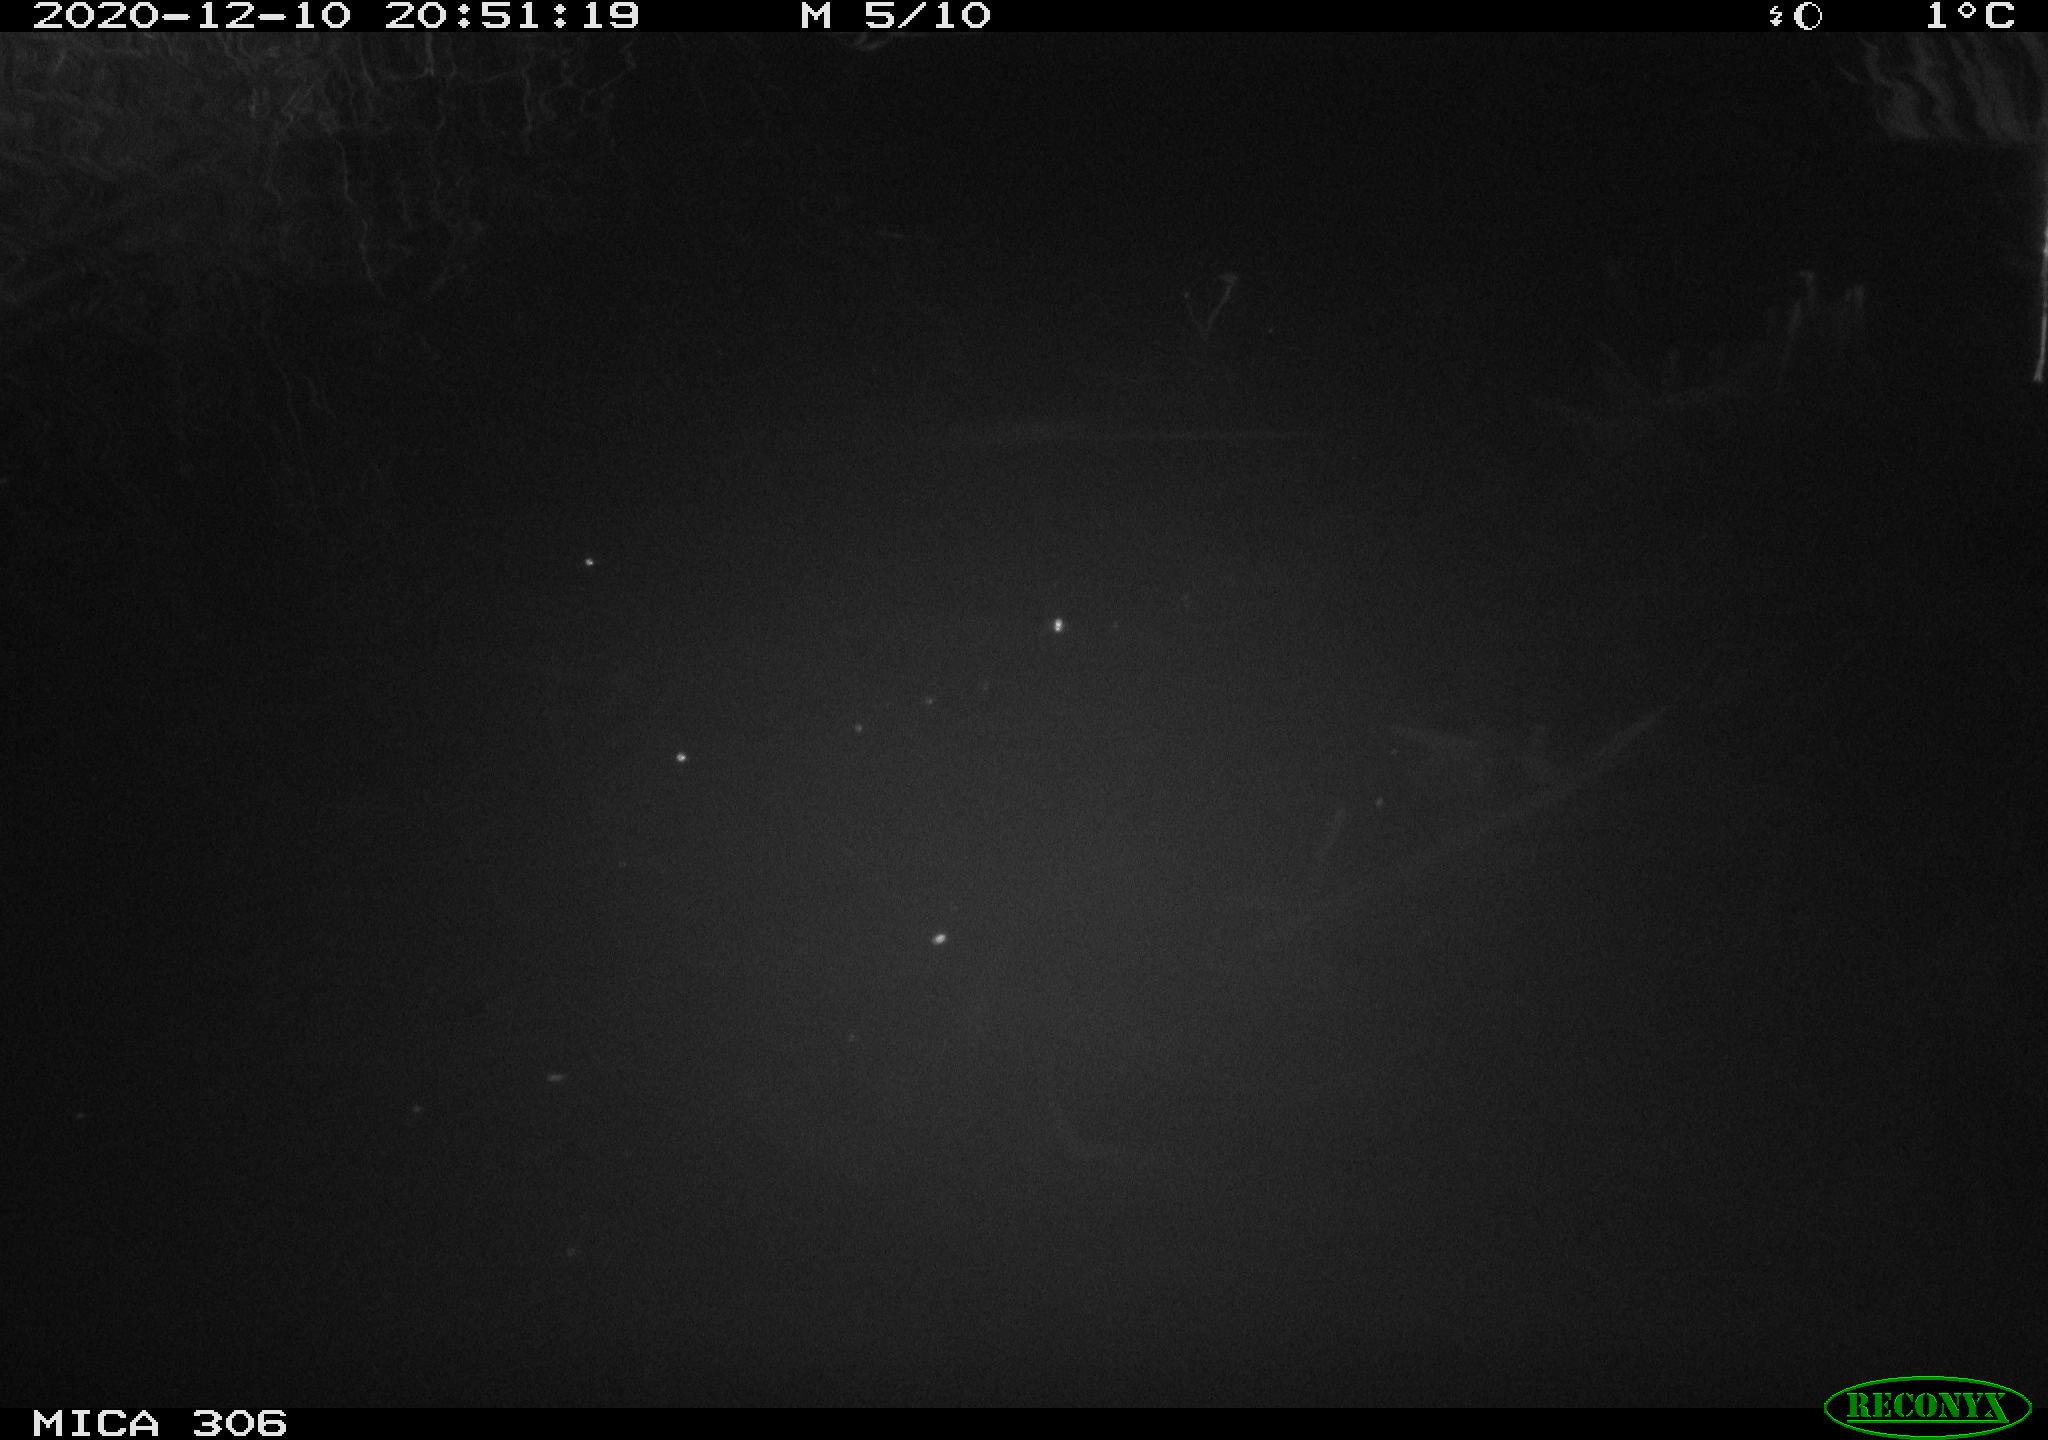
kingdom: Animalia
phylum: Chordata
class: Aves
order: Gruiformes
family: Rallidae
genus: Gallinula
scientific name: Gallinula chloropus
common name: Common moorhen
